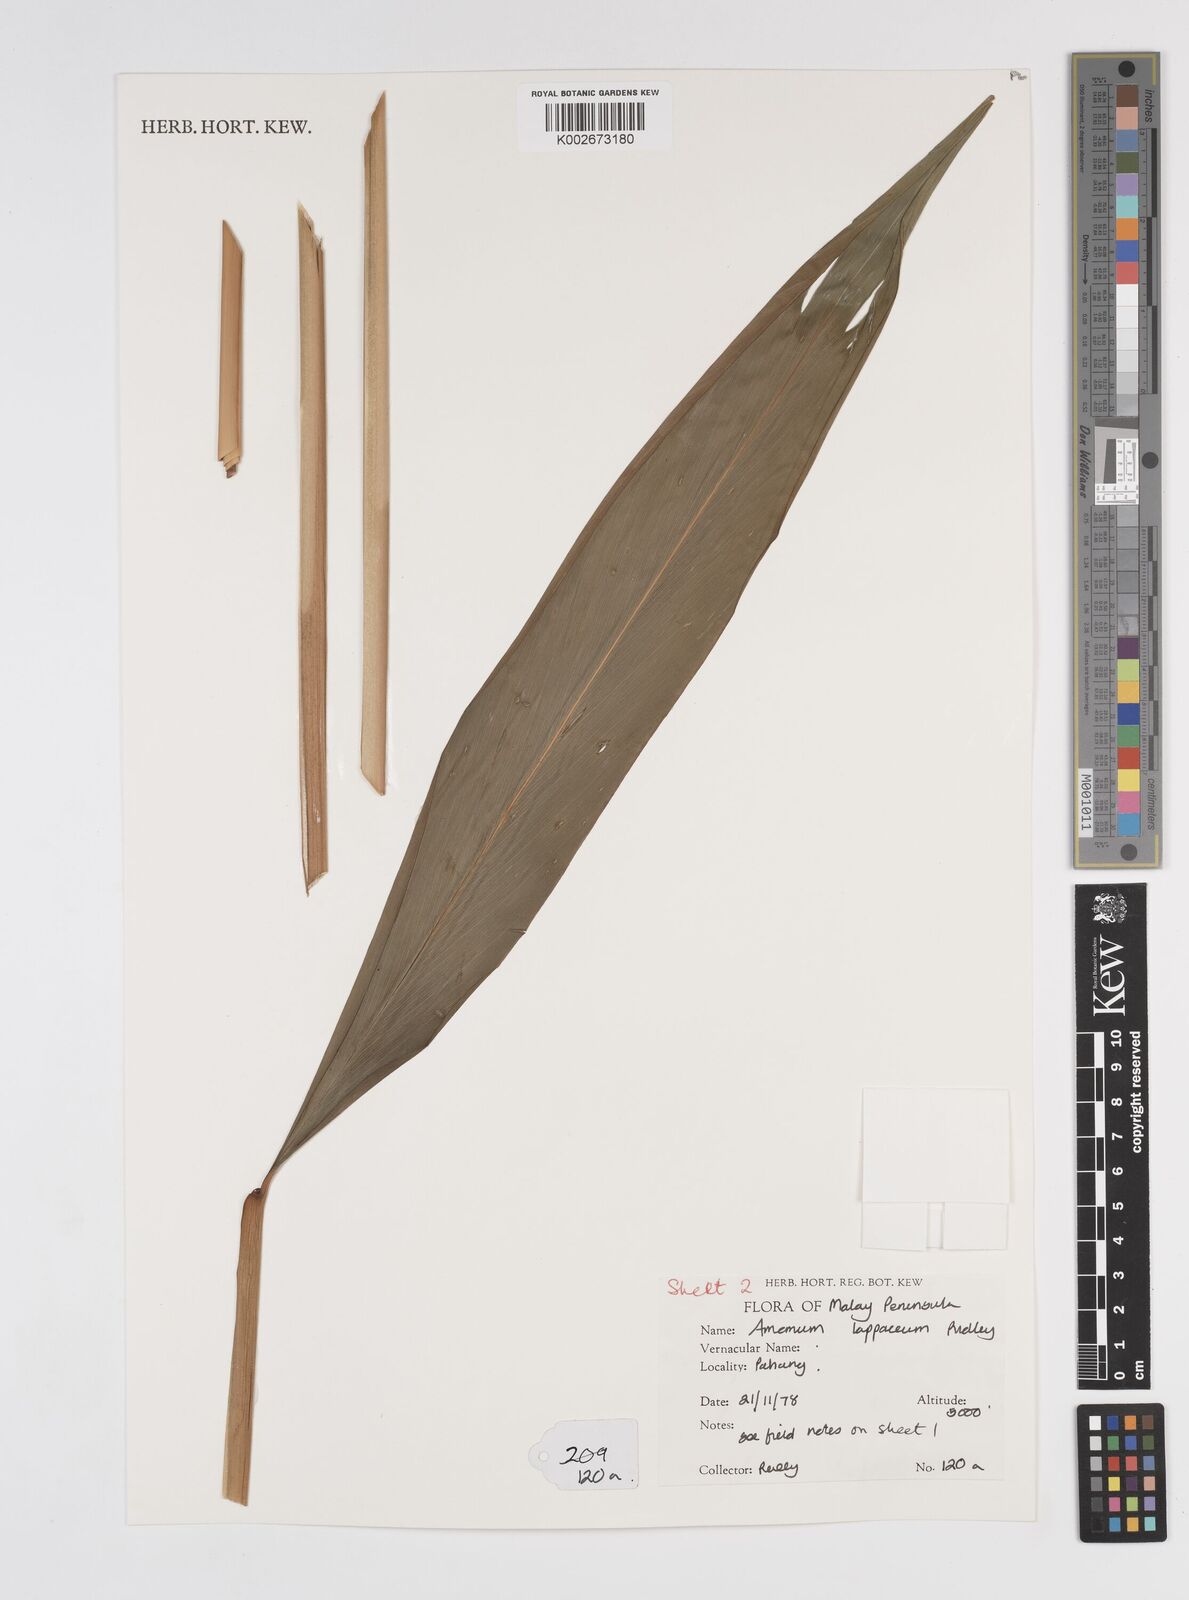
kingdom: Plantae
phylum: Tracheophyta
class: Liliopsida
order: Zingiberales
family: Zingiberaceae
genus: Meistera
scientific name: Meistera lappacea
